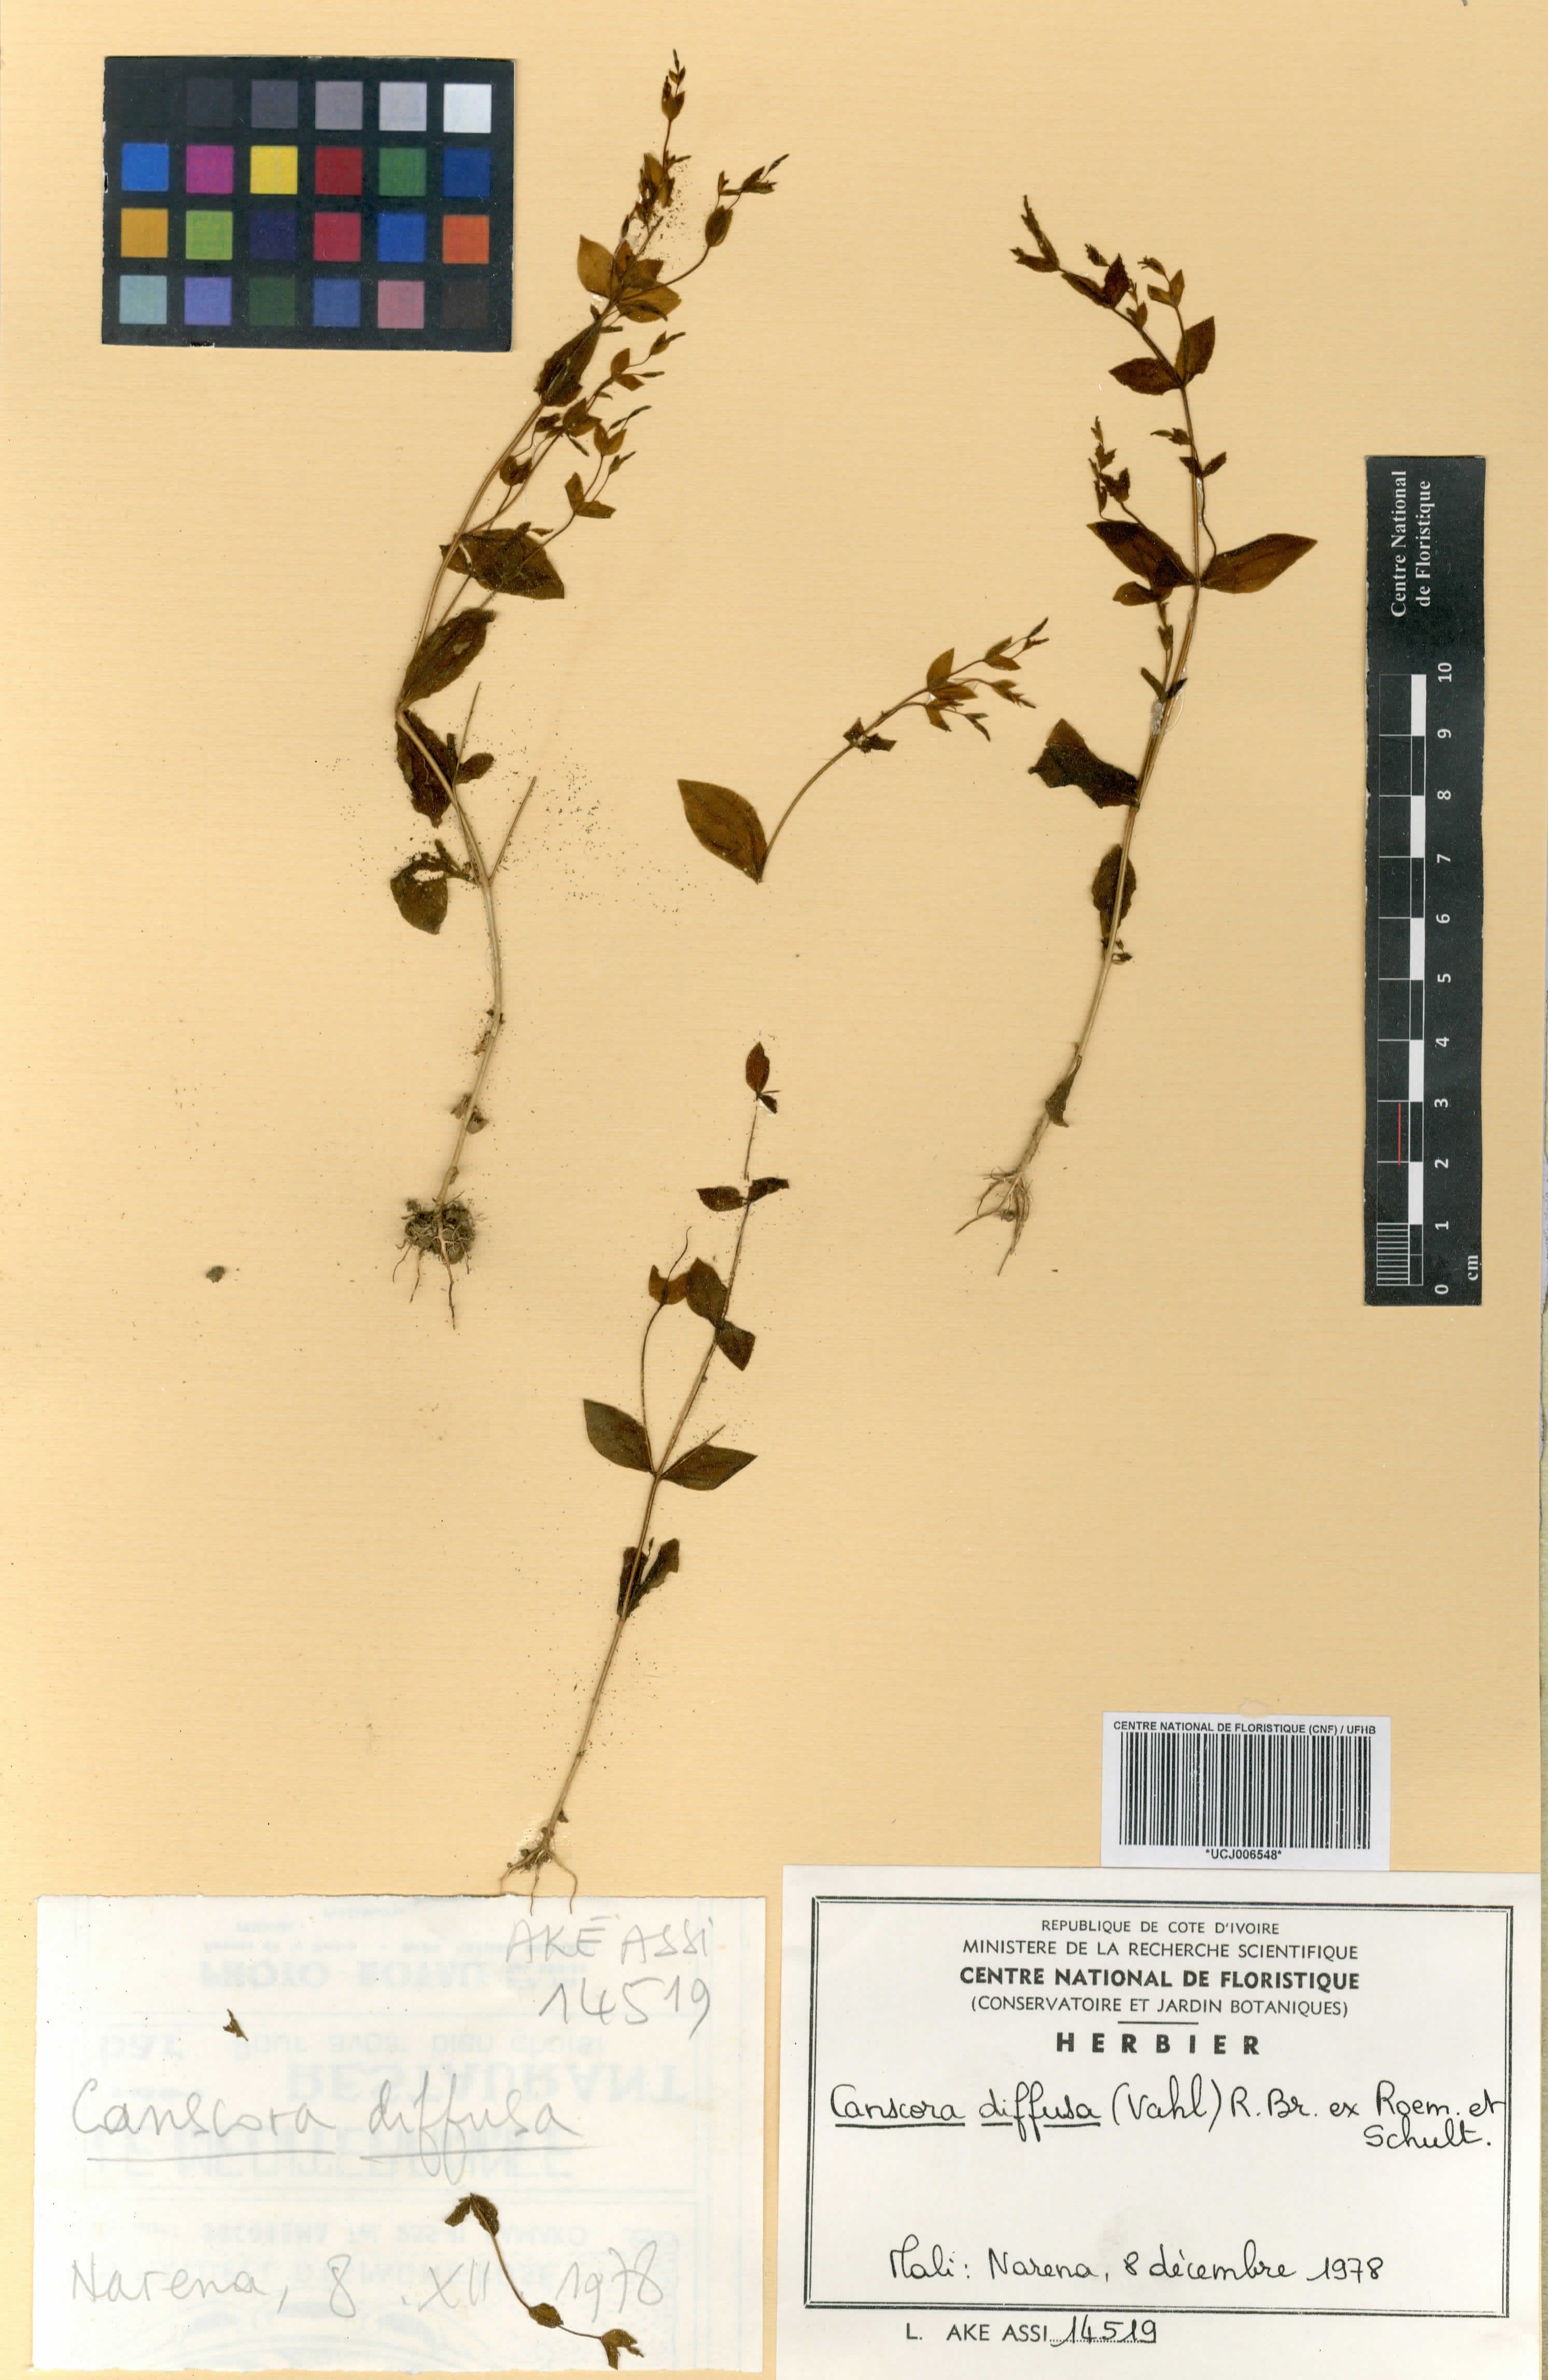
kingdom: Plantae
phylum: Tracheophyta
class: Magnoliopsida
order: Gentianales
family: Gentianaceae
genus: Canscora
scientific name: Canscora diffusa
